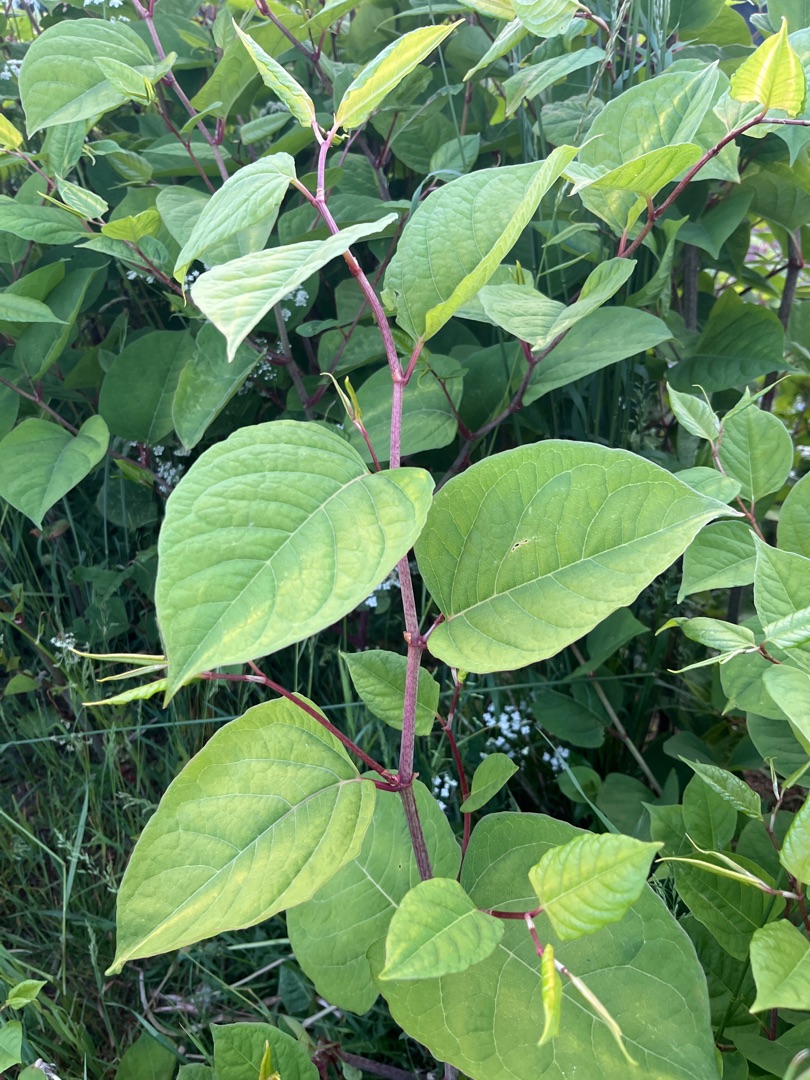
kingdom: Plantae
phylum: Tracheophyta
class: Magnoliopsida
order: Caryophyllales
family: Polygonaceae
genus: Reynoutria
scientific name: Reynoutria japonica
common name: Japan-pileurt
